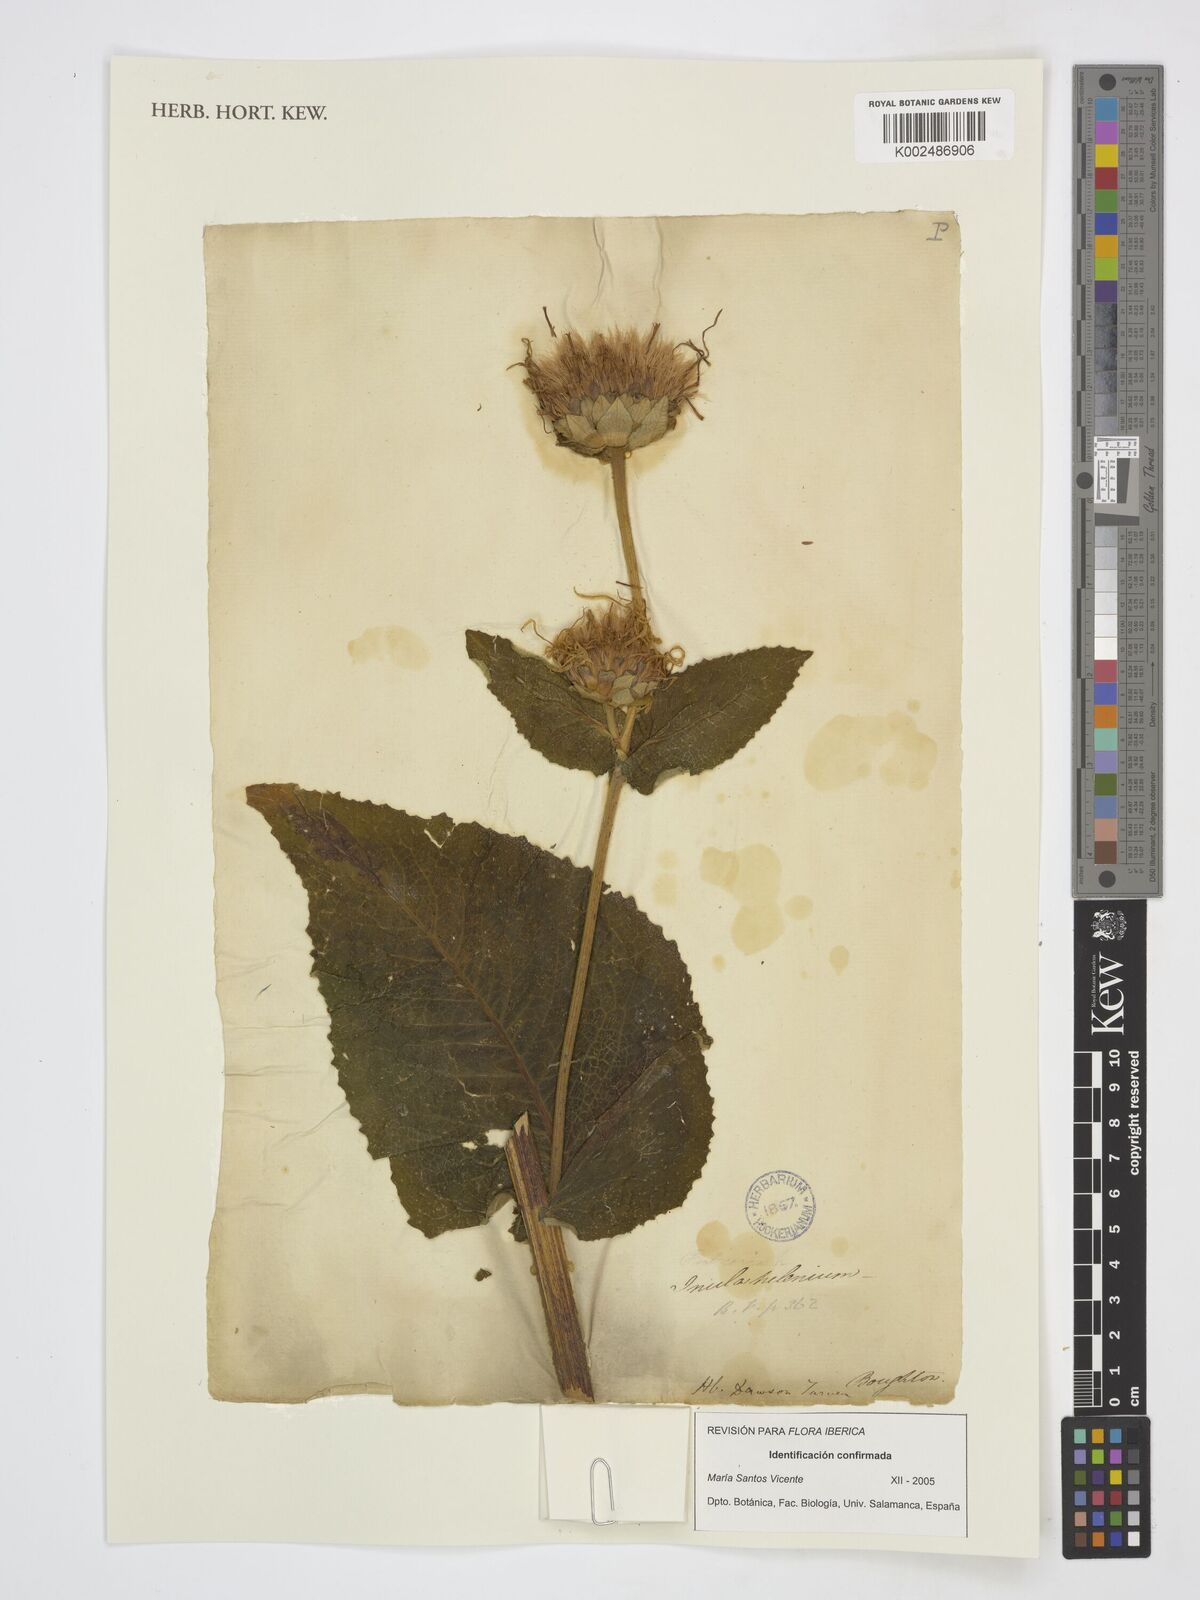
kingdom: Plantae
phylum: Tracheophyta
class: Magnoliopsida
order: Asterales
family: Asteraceae
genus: Inula
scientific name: Inula helenium
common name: Elecampane
